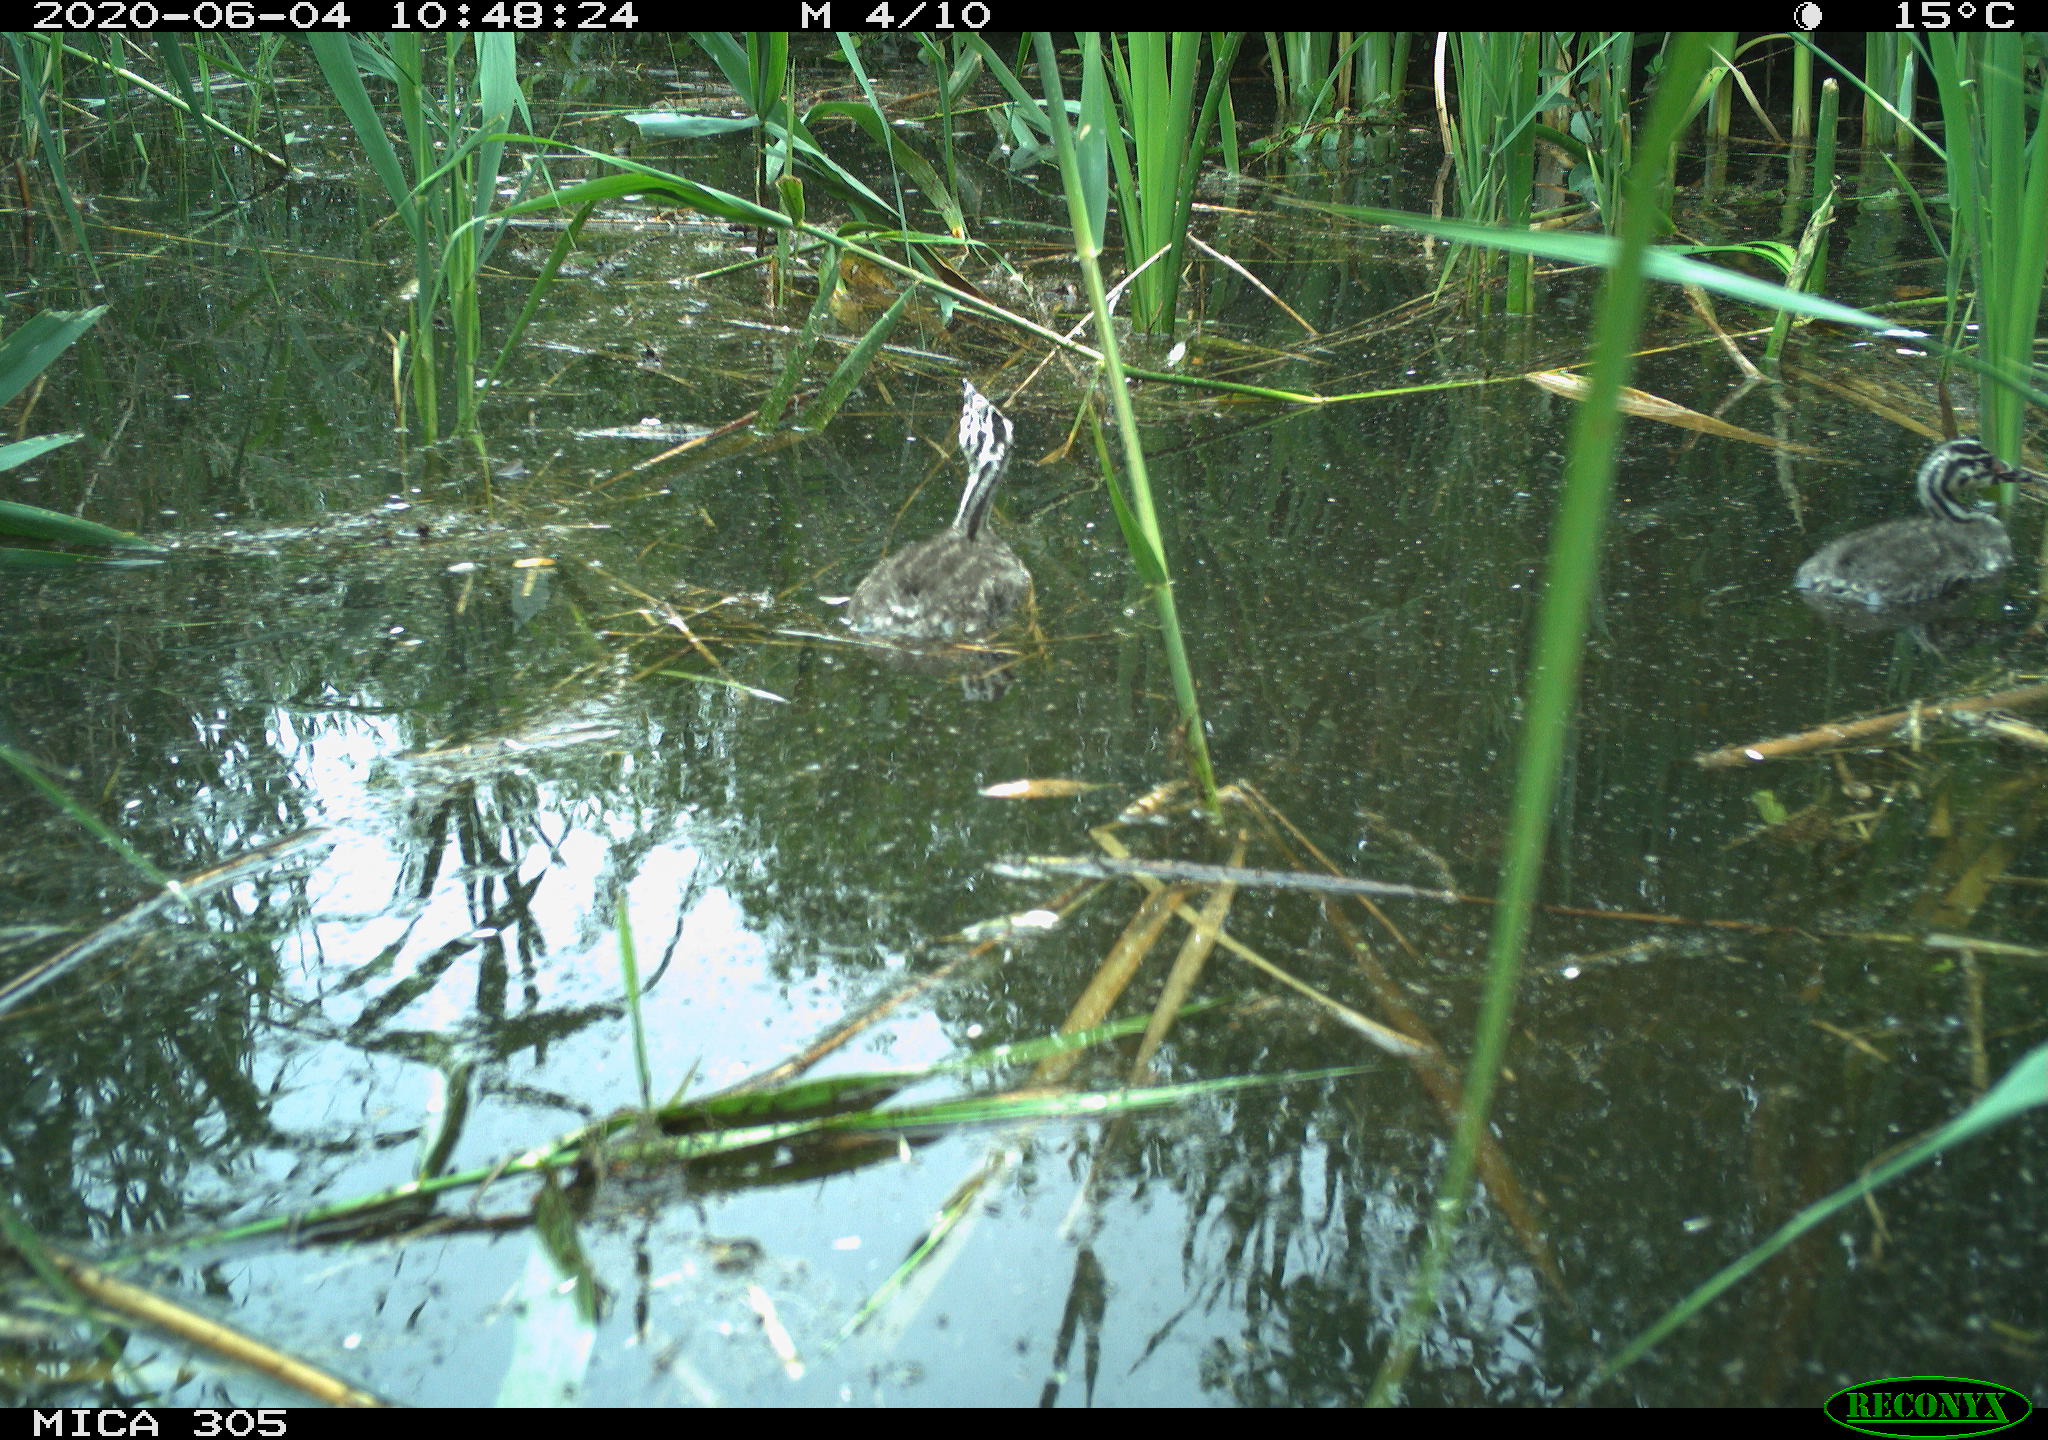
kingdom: Animalia
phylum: Chordata
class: Aves
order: Podicipediformes
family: Podicipedidae
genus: Podiceps
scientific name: Podiceps cristatus
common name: Great crested grebe
